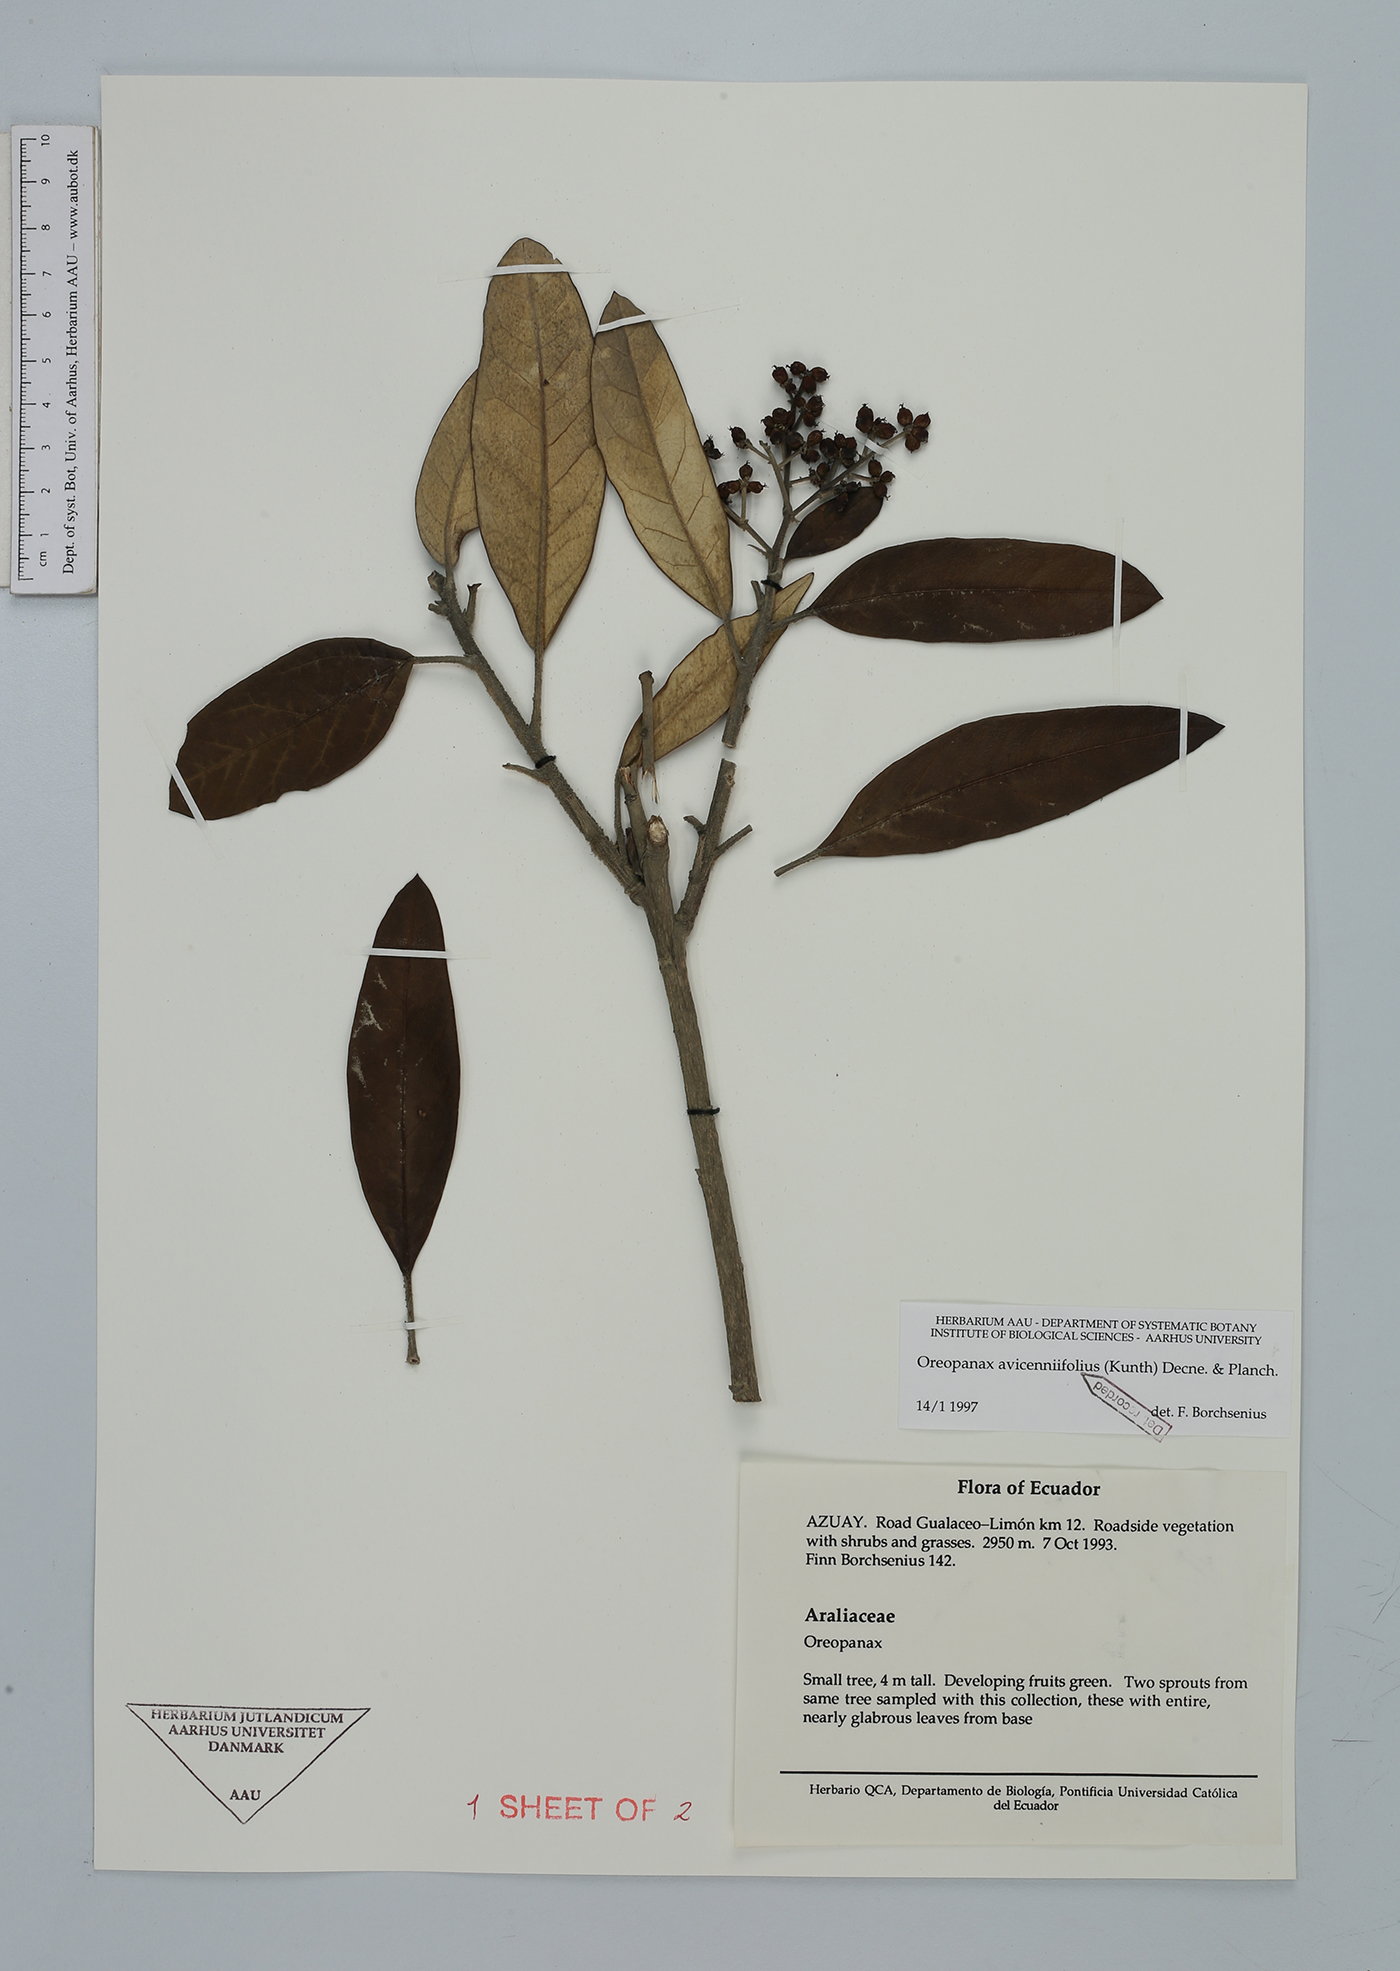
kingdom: Plantae
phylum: Tracheophyta
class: Magnoliopsida
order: Apiales
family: Araliaceae
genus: Oreopanax
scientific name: Oreopanax avicenniifolius
